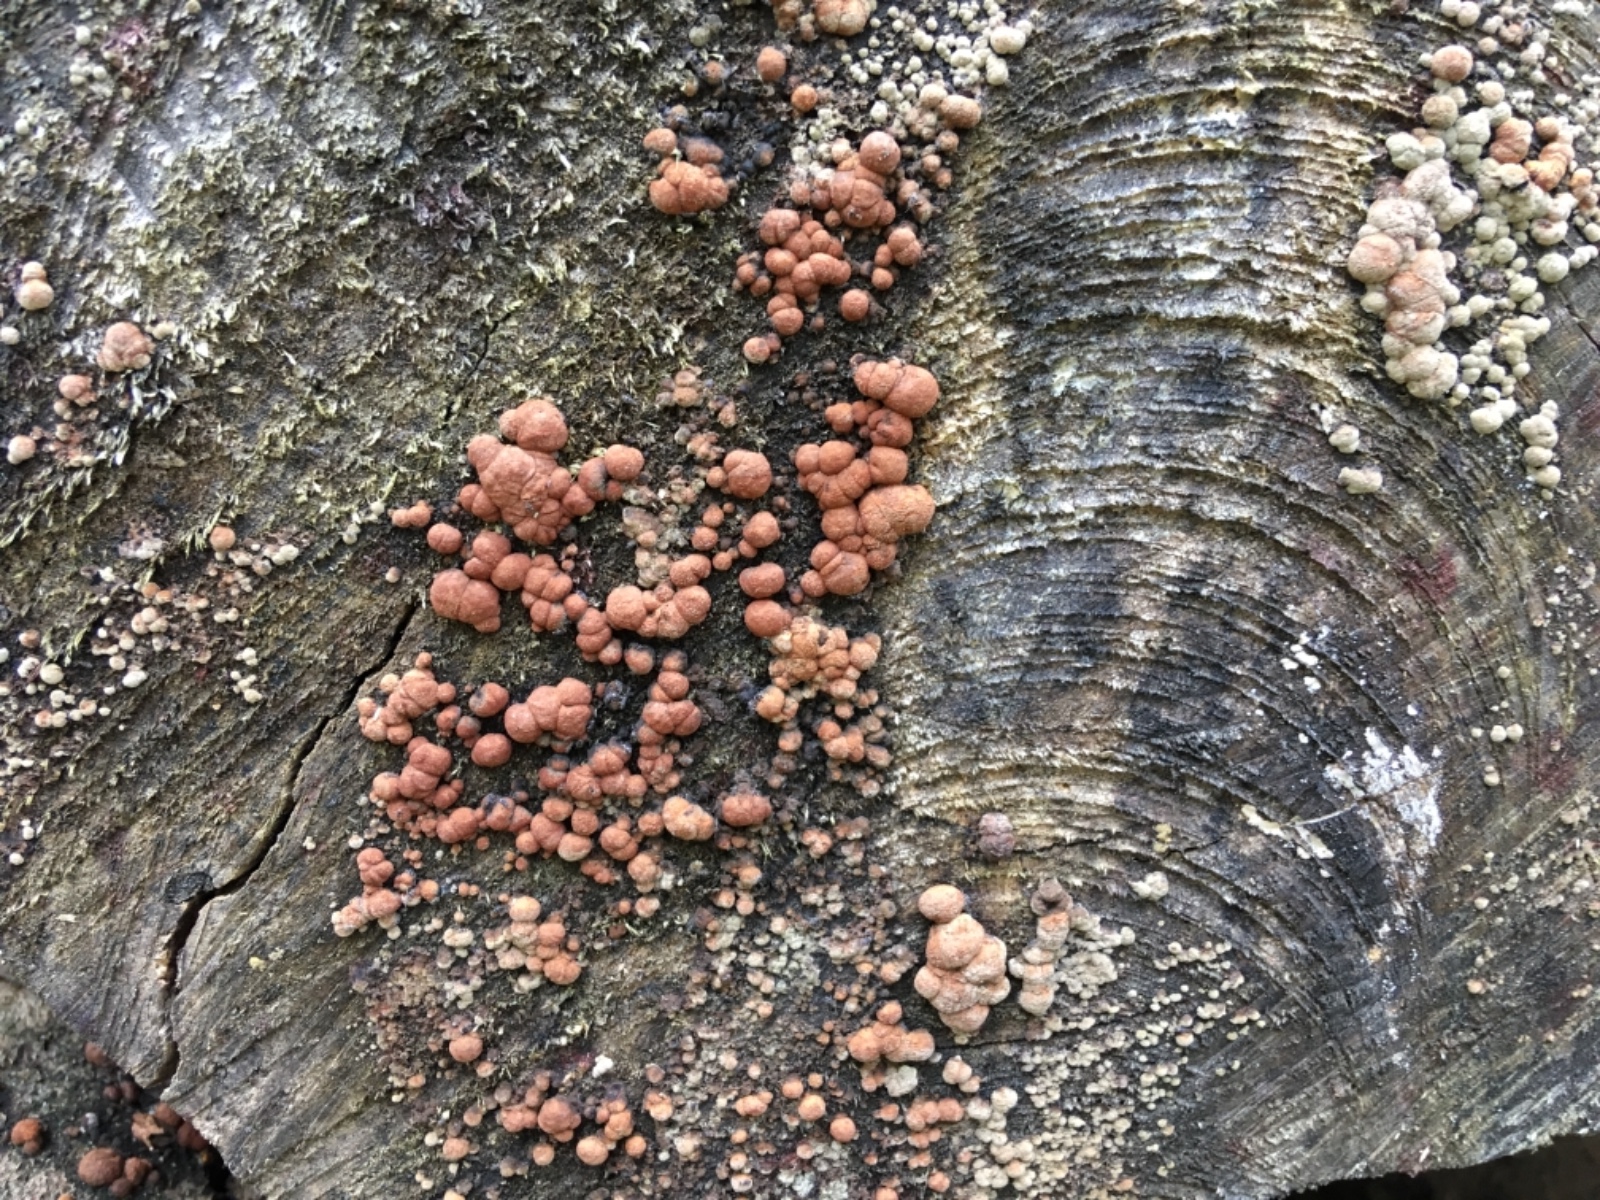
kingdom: Fungi
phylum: Ascomycota
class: Sordariomycetes
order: Xylariales
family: Hypoxylaceae
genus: Hypoxylon
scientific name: Hypoxylon fragiforme
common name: kuljordbær
